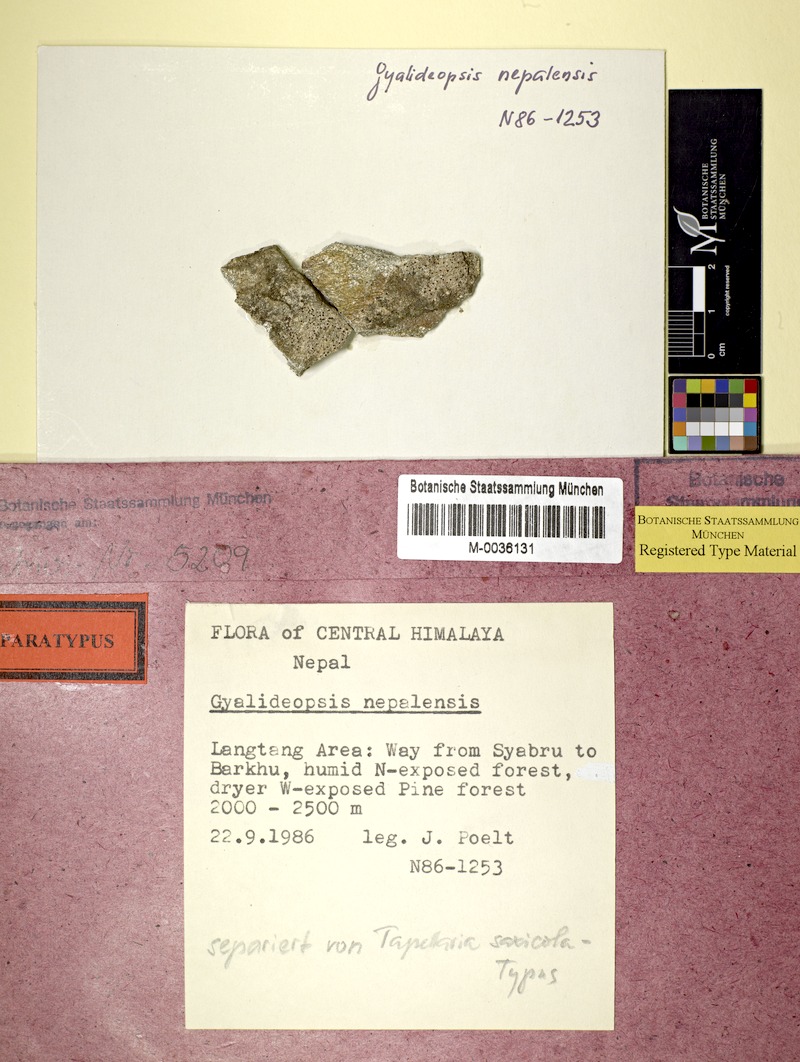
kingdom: Fungi
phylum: Ascomycota
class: Lecanoromycetes
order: Ostropales
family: Gomphillaceae
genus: Gyalideopsis
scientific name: Gyalideopsis nepalensis
